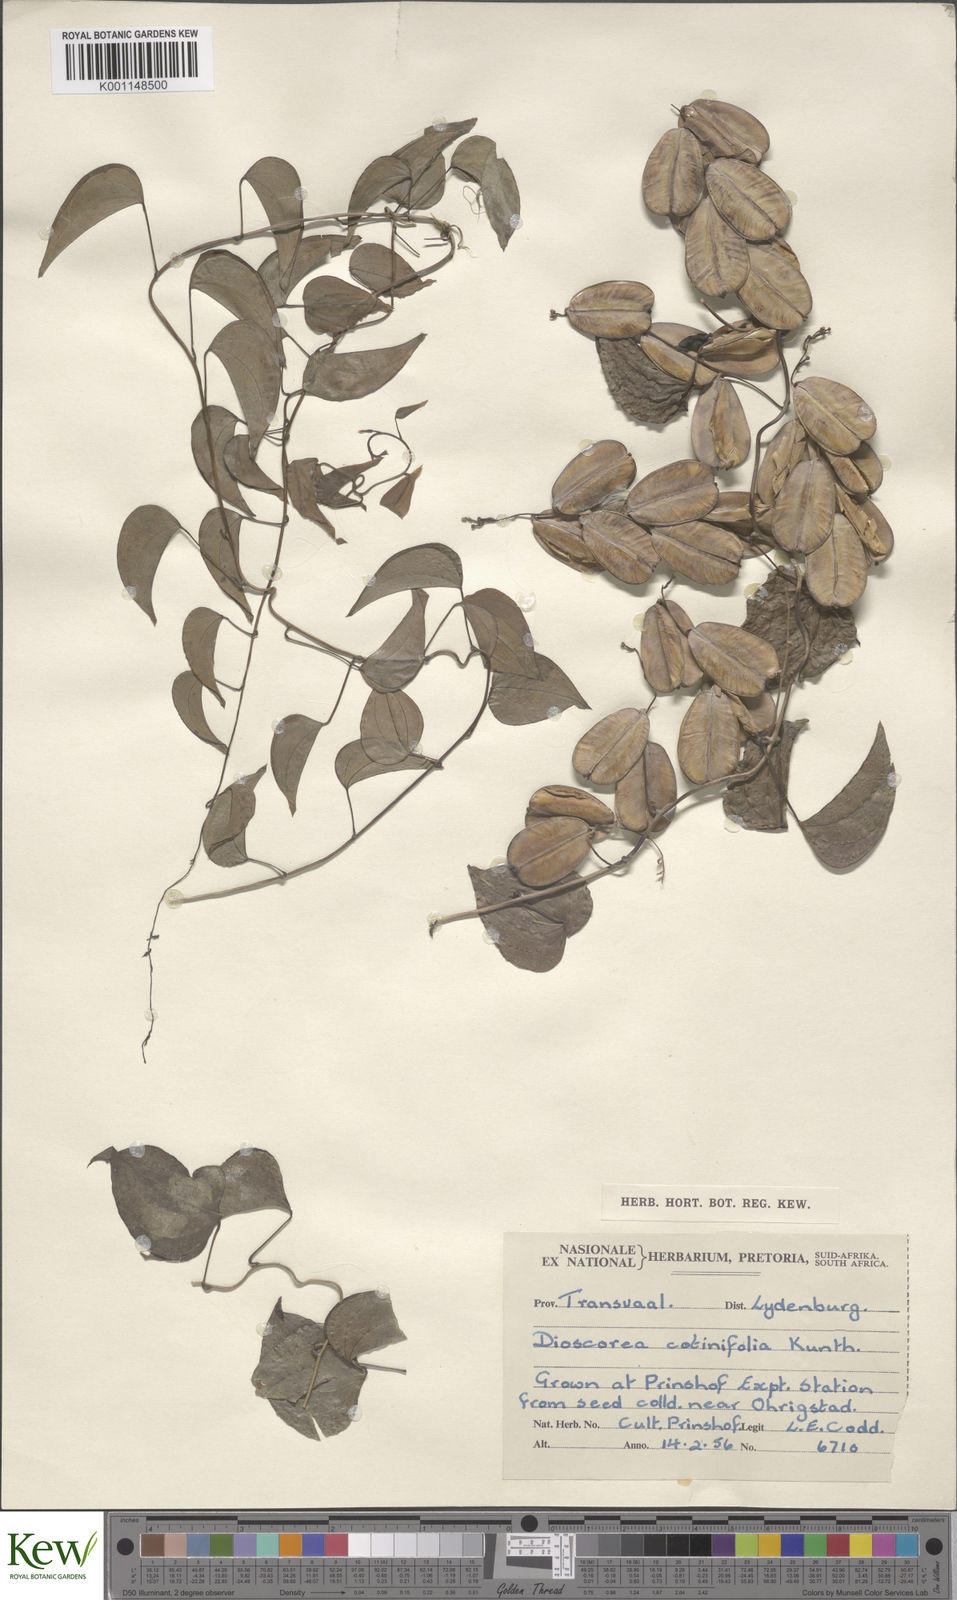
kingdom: Plantae
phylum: Tracheophyta
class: Liliopsida
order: Dioscoreales
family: Dioscoreaceae
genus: Dioscorea
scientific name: Dioscorea cotinifolia
